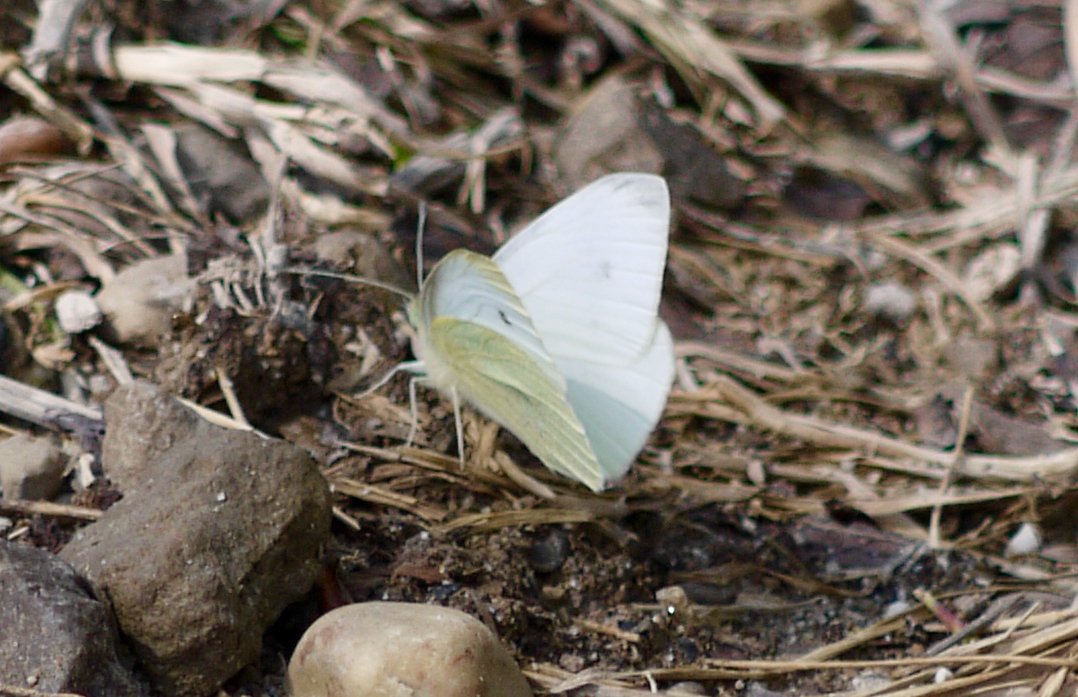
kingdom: Animalia
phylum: Arthropoda
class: Insecta
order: Lepidoptera
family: Pieridae
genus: Pieris
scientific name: Pieris rapae
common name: Cabbage White
